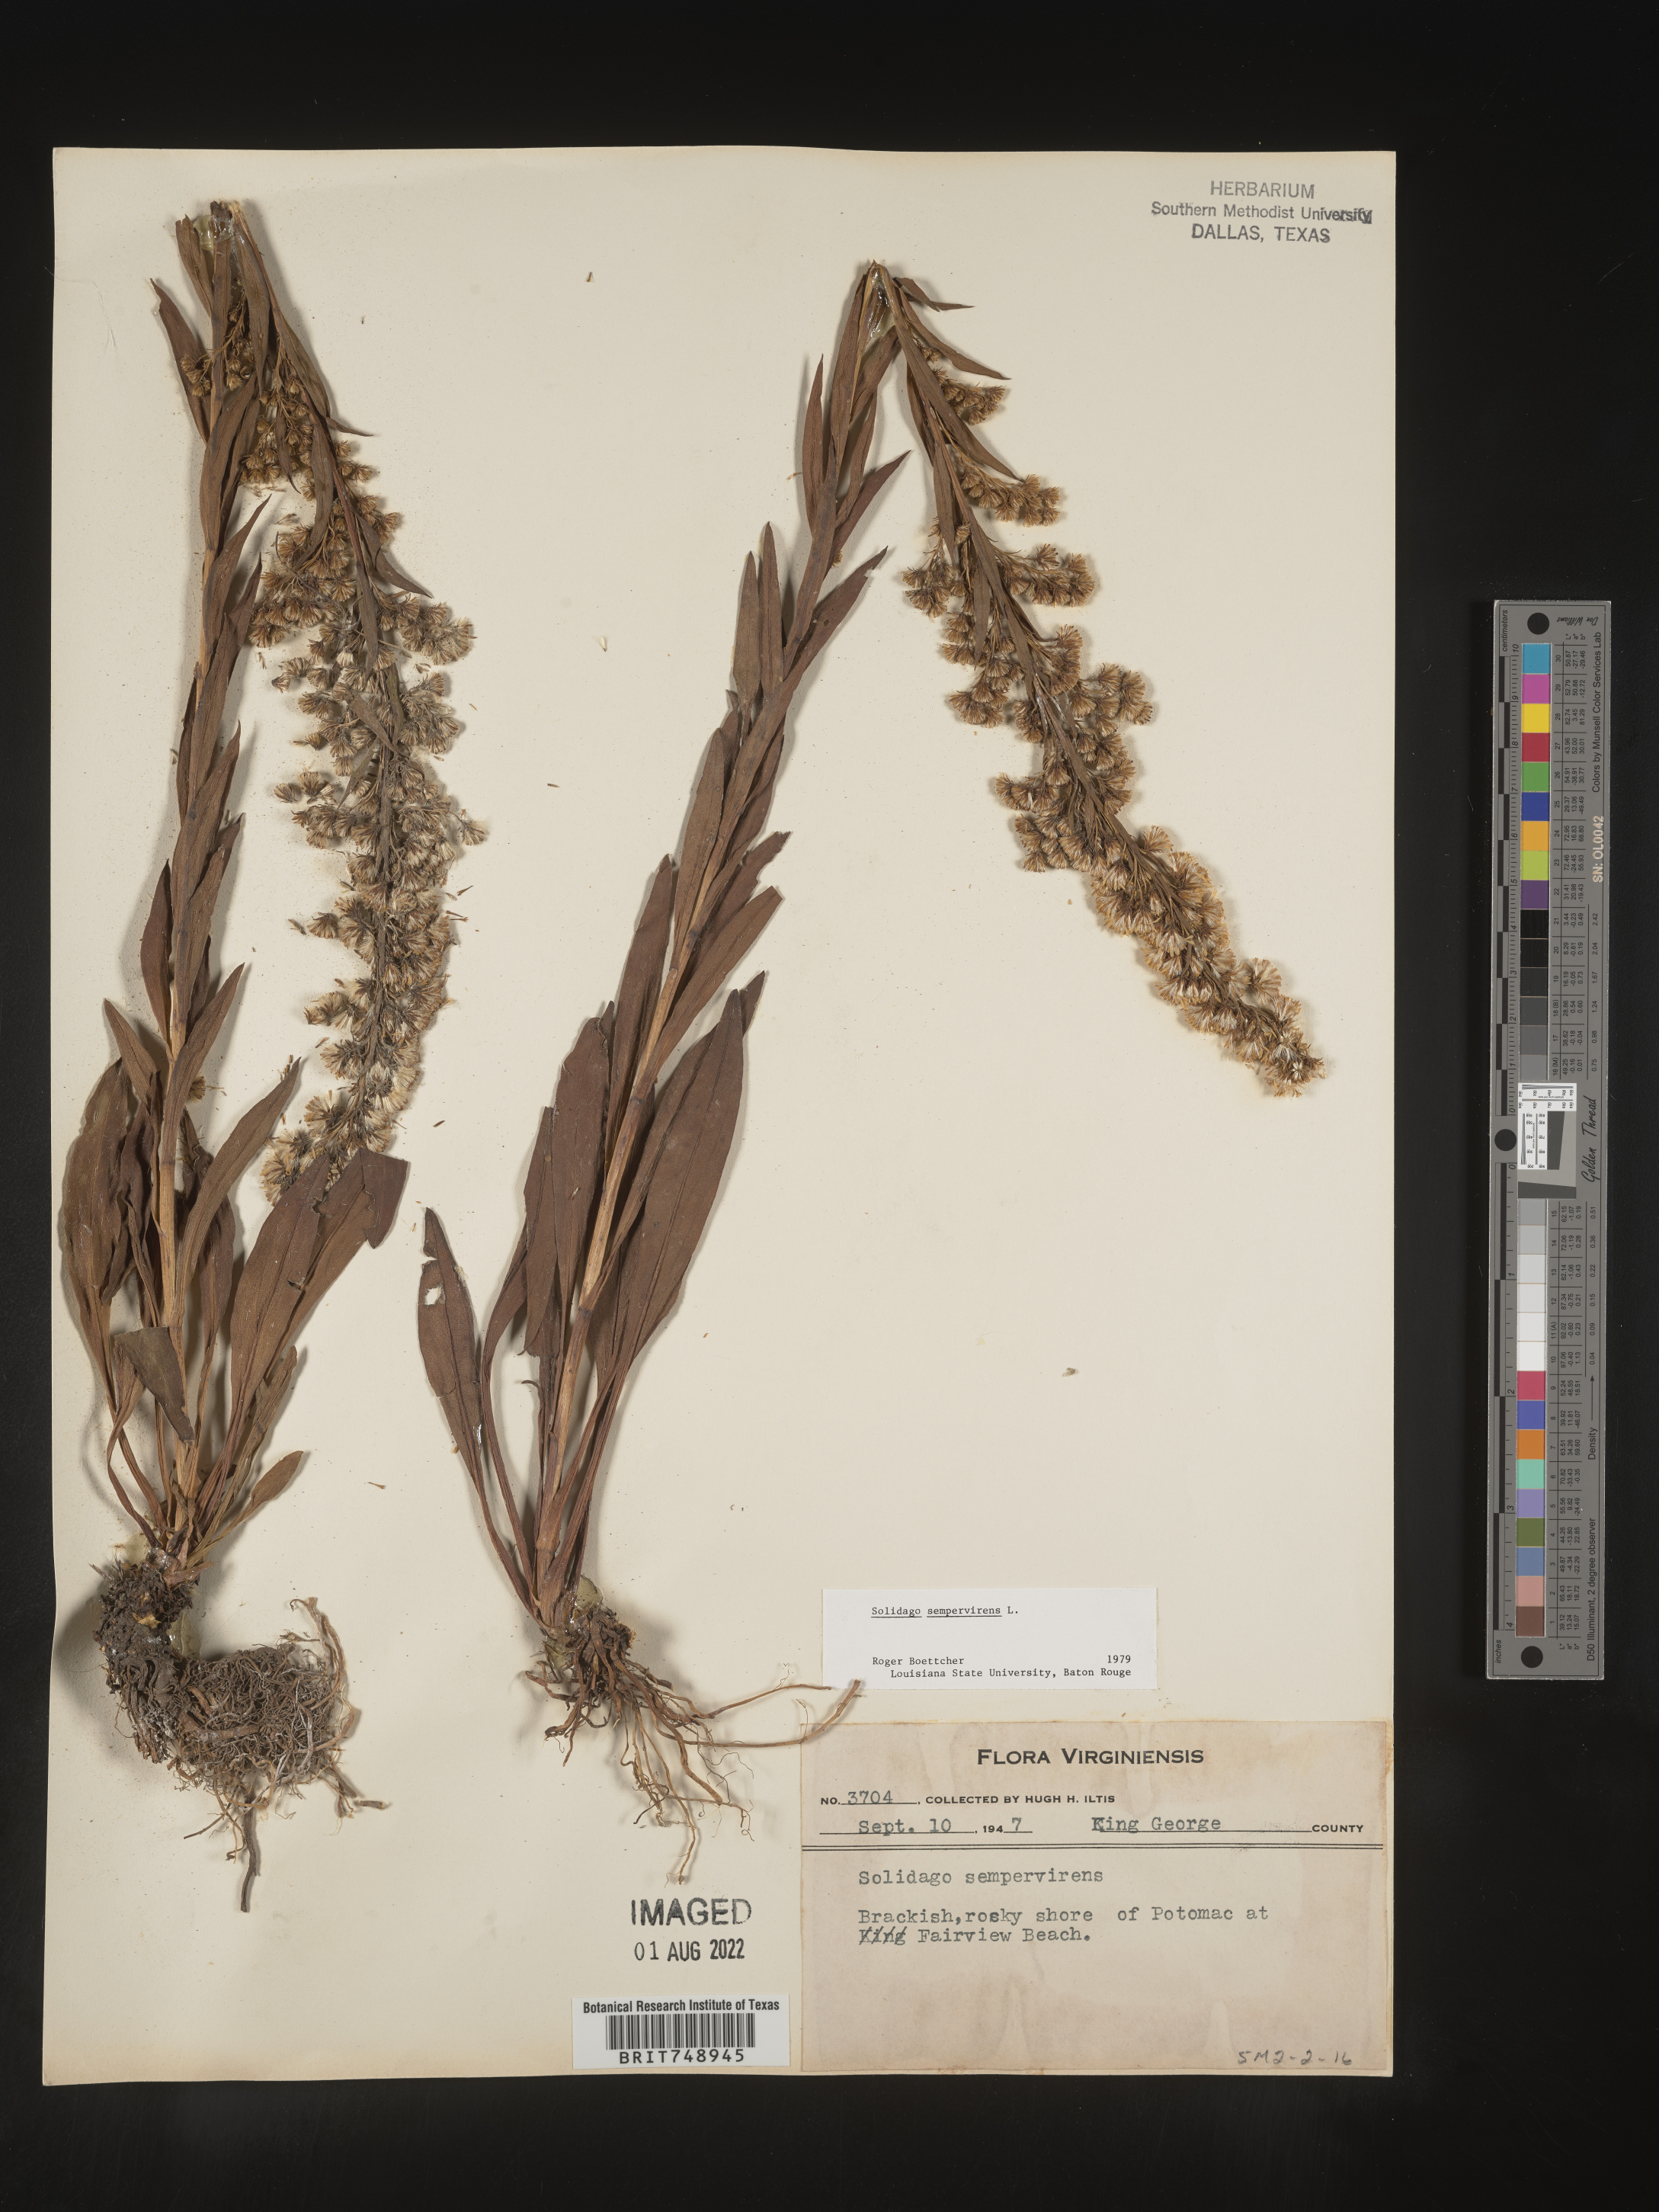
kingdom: Plantae
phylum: Tracheophyta
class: Magnoliopsida
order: Asterales
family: Asteraceae
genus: Solidago
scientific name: Solidago sempervirens
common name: Salt-marsh goldenrod
